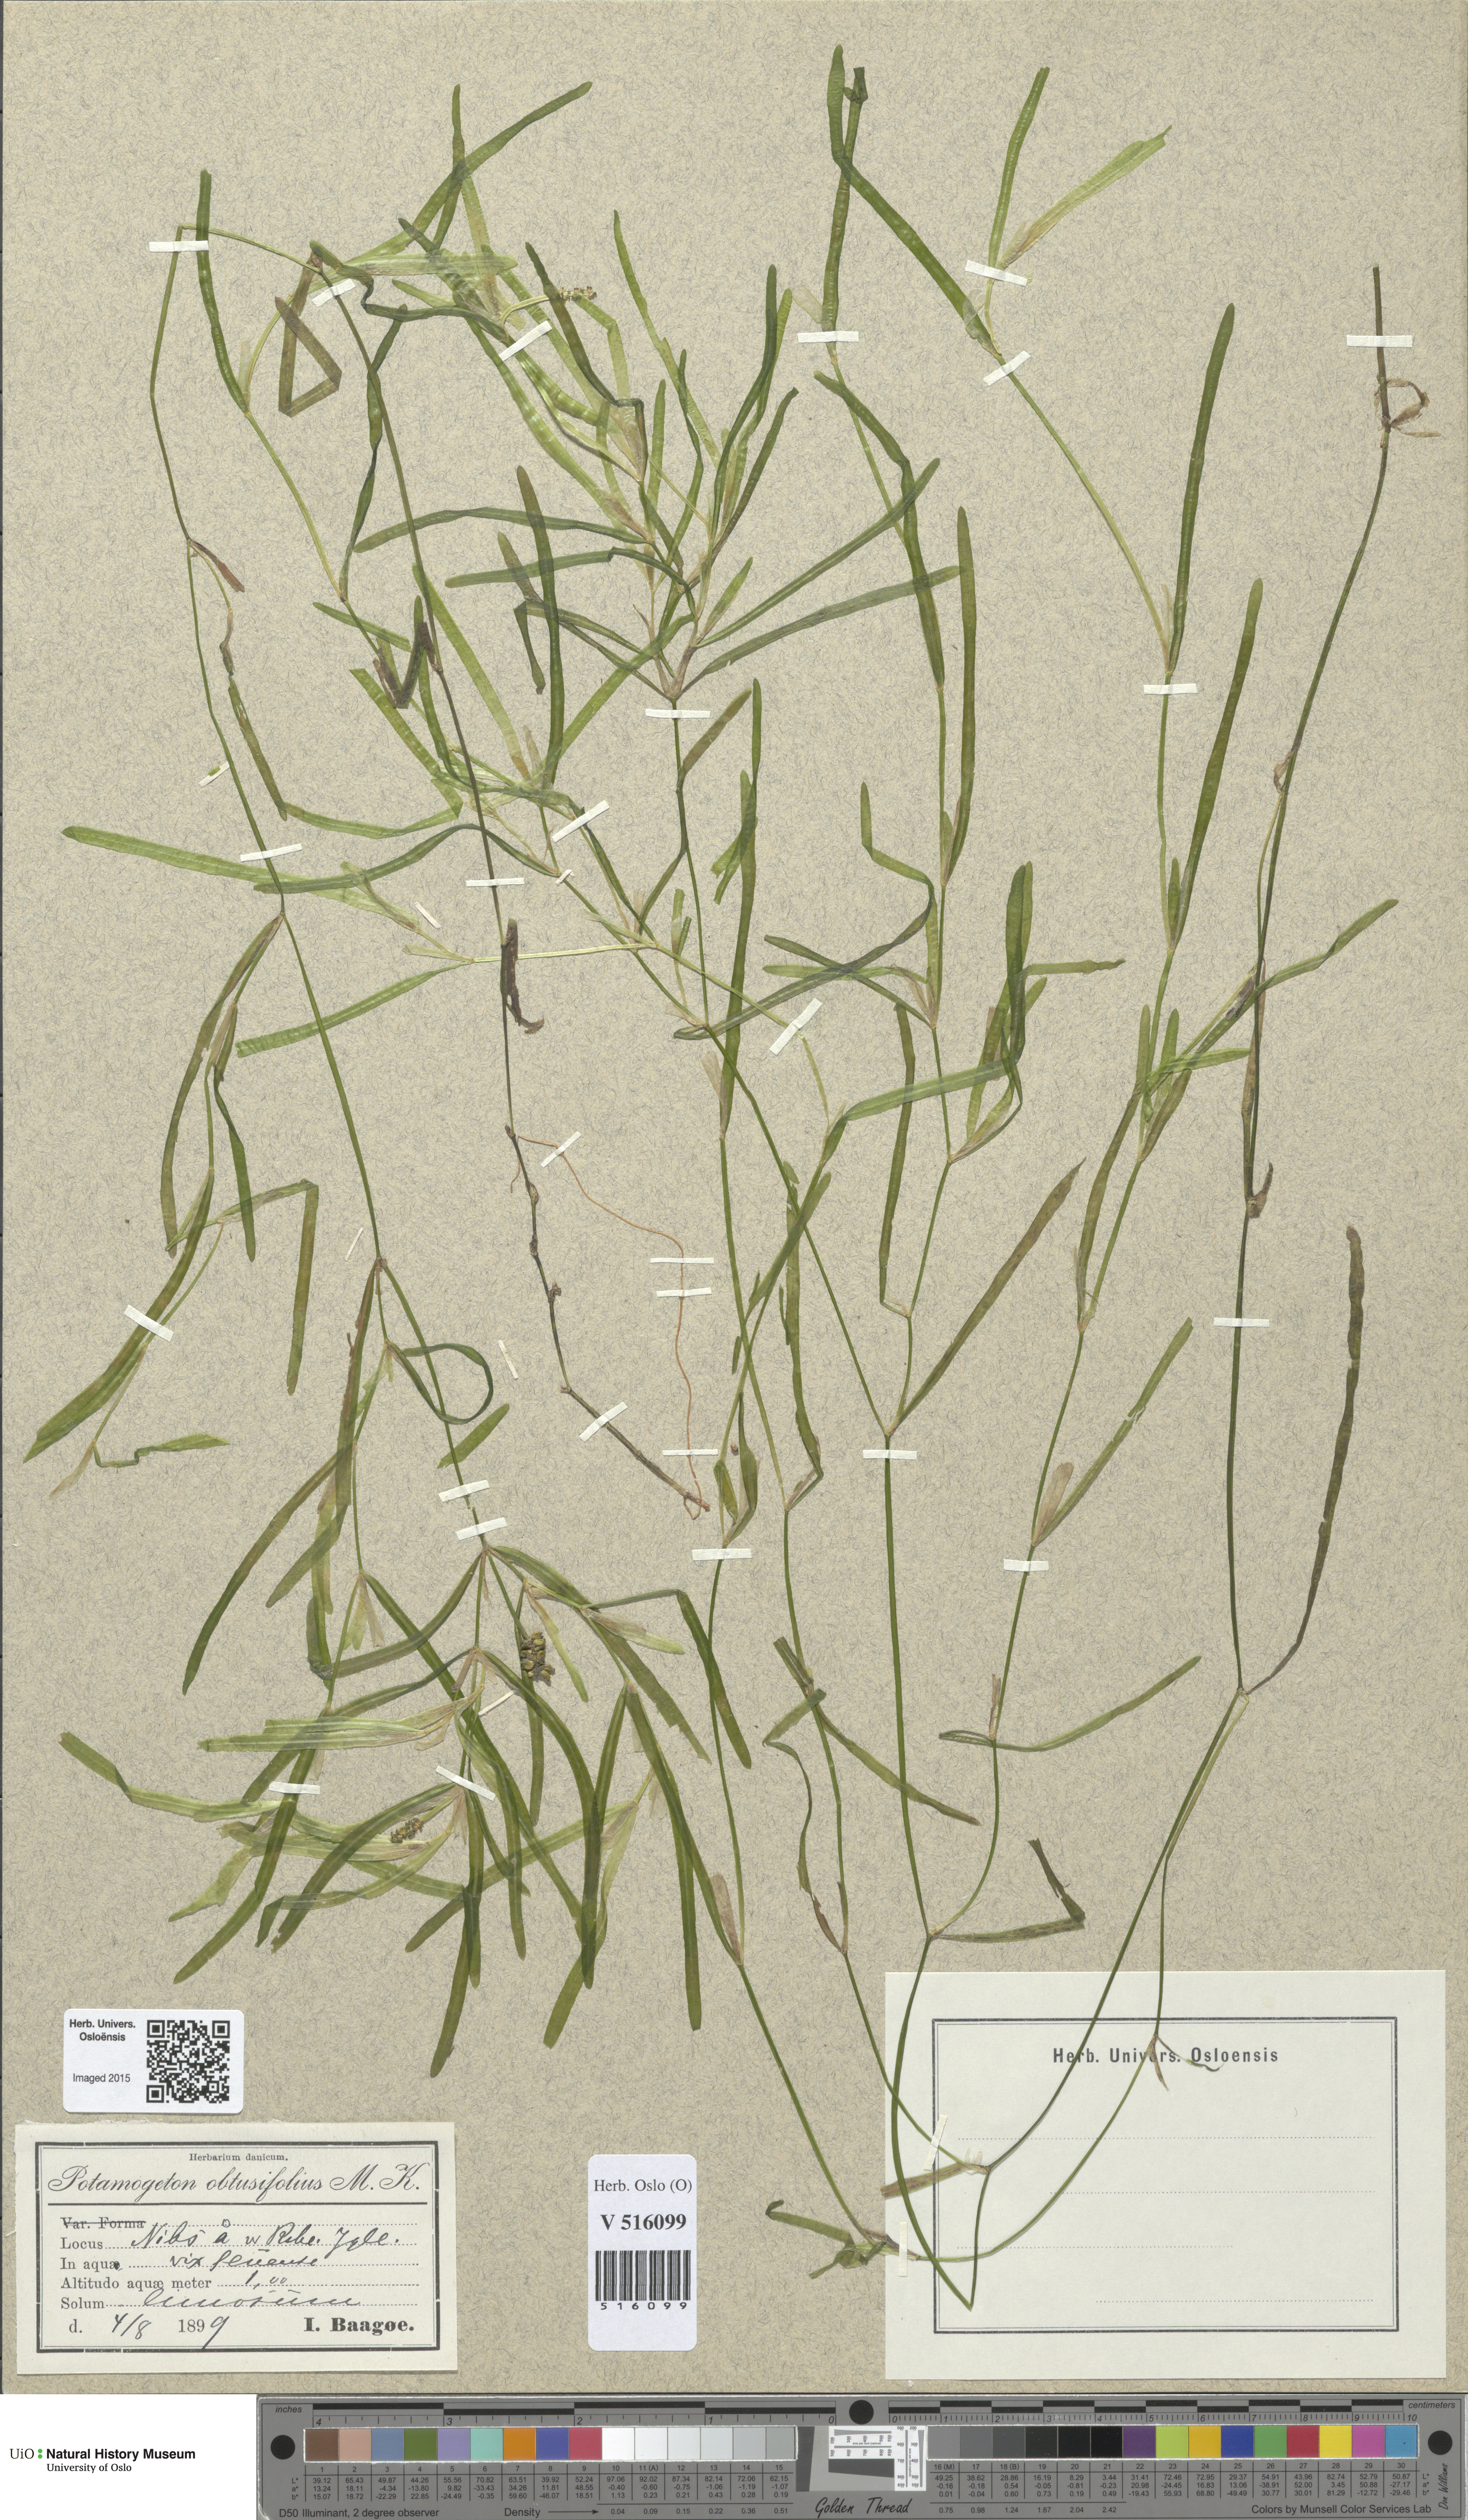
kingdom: Plantae
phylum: Tracheophyta
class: Liliopsida
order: Alismatales
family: Potamogetonaceae
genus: Potamogeton
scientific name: Potamogeton obtusifolius
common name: Blunt-leaved pondweed
